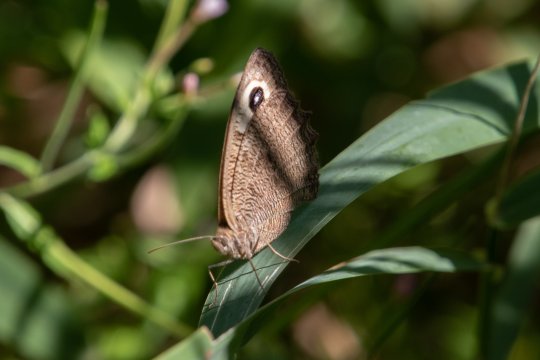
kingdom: Animalia
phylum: Arthropoda
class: Insecta
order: Lepidoptera
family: Nymphalidae
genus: Cercyonis
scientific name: Cercyonis pegala
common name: Common Wood-Nymph
